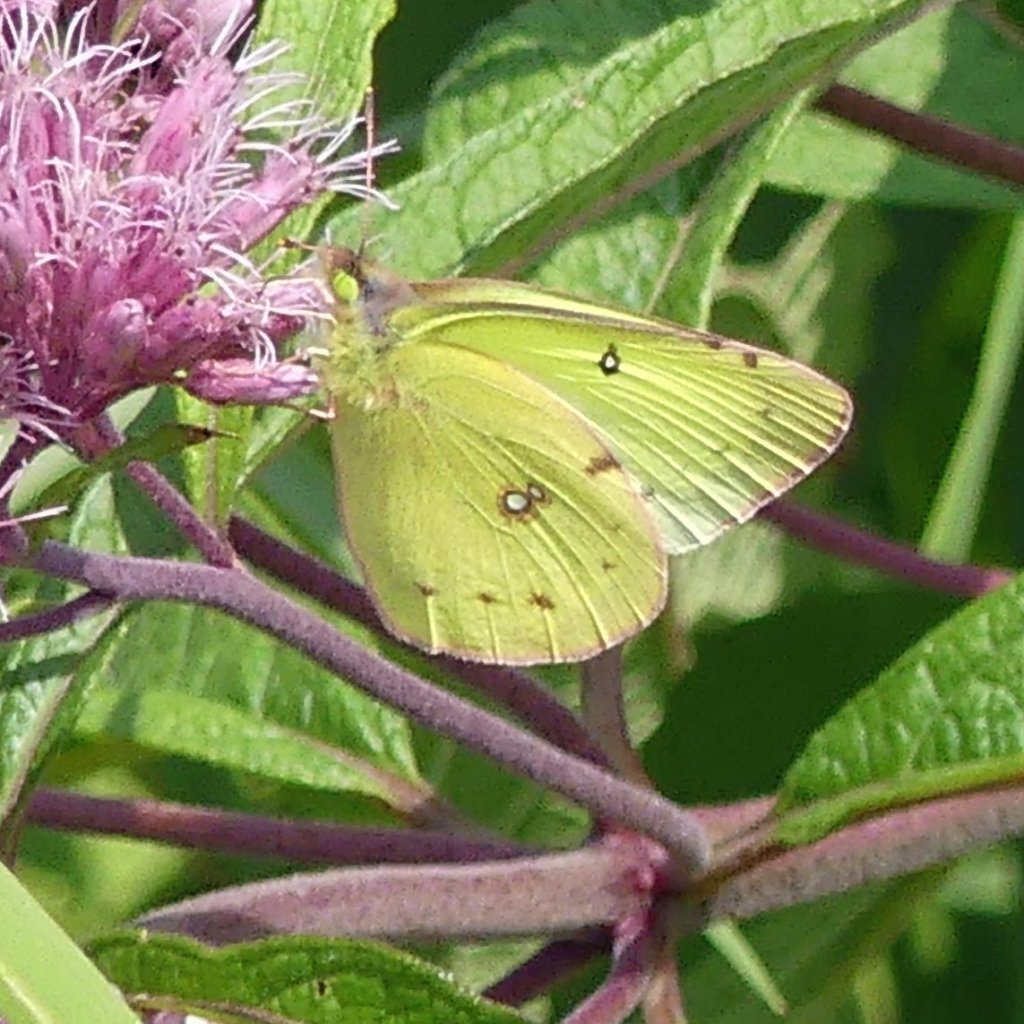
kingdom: Animalia
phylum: Arthropoda
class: Insecta
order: Lepidoptera
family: Pieridae
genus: Colias
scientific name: Colias philodice
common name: Clouded Sulphur
